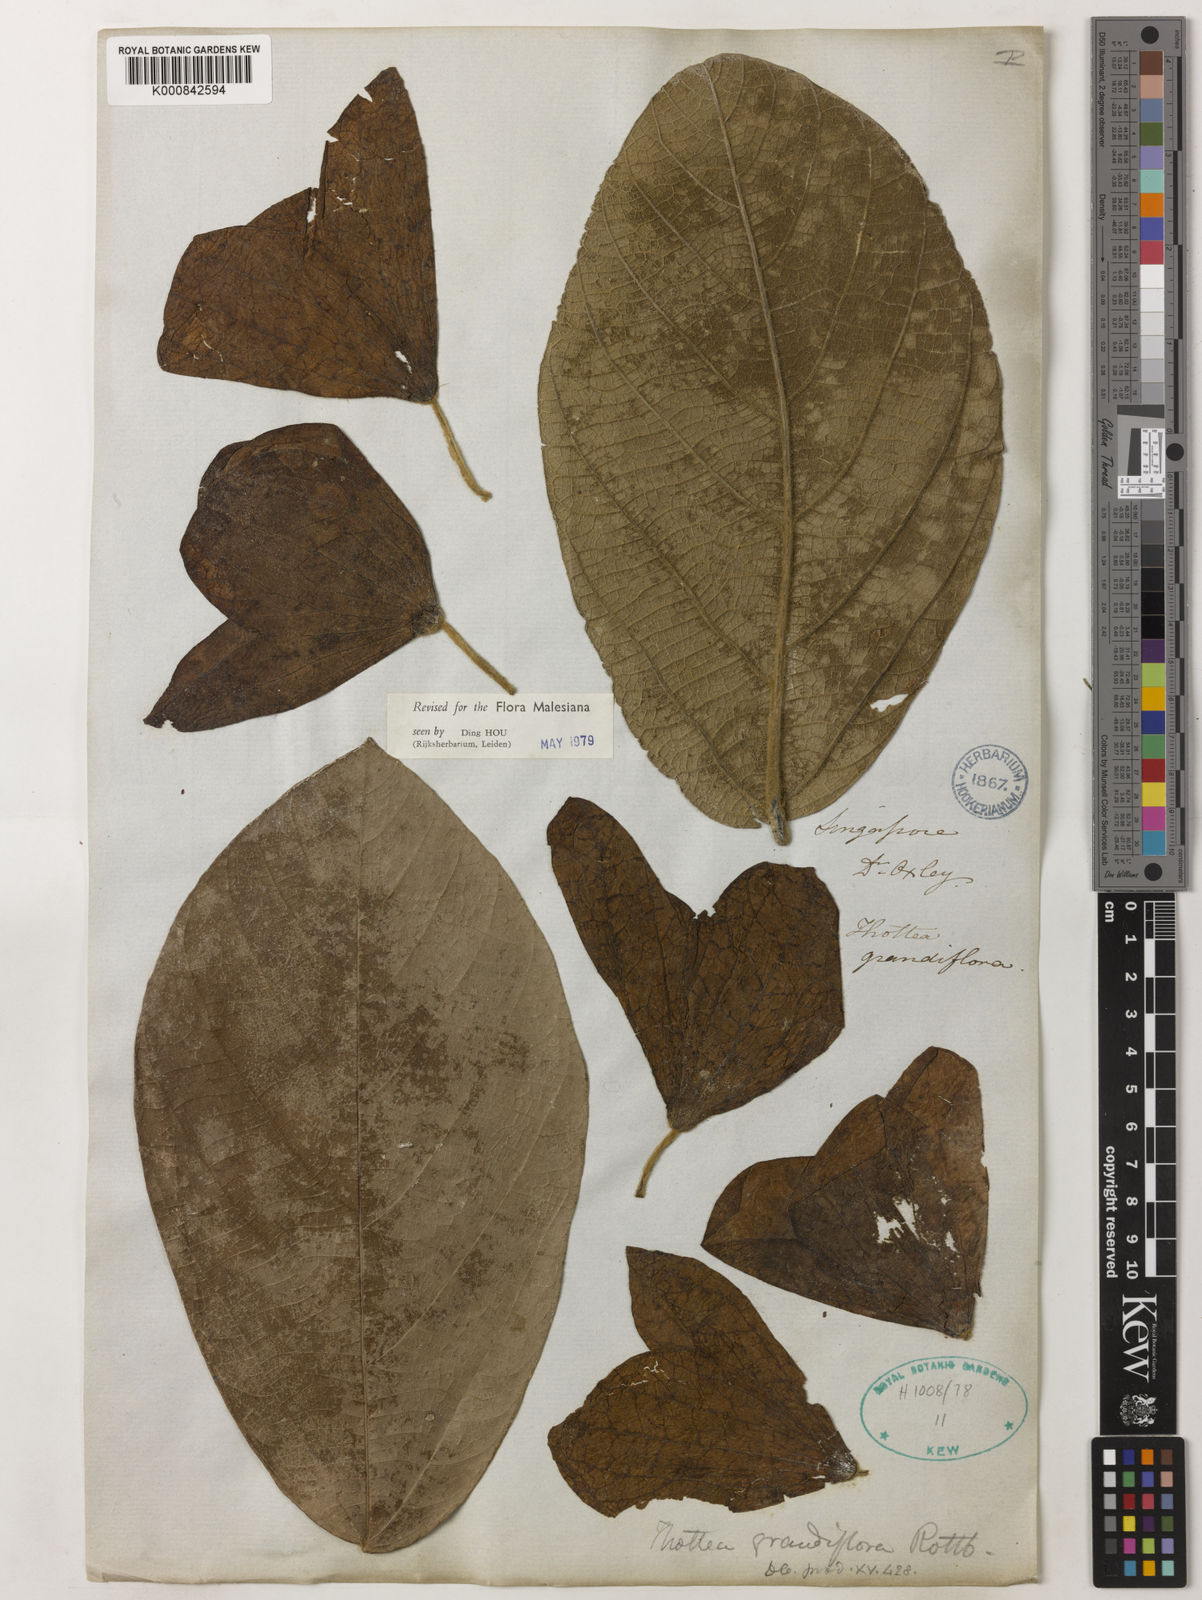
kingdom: Plantae
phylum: Tracheophyta
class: Magnoliopsida
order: Piperales
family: Aristolochiaceae
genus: Thottea
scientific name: Thottea grandiflora
